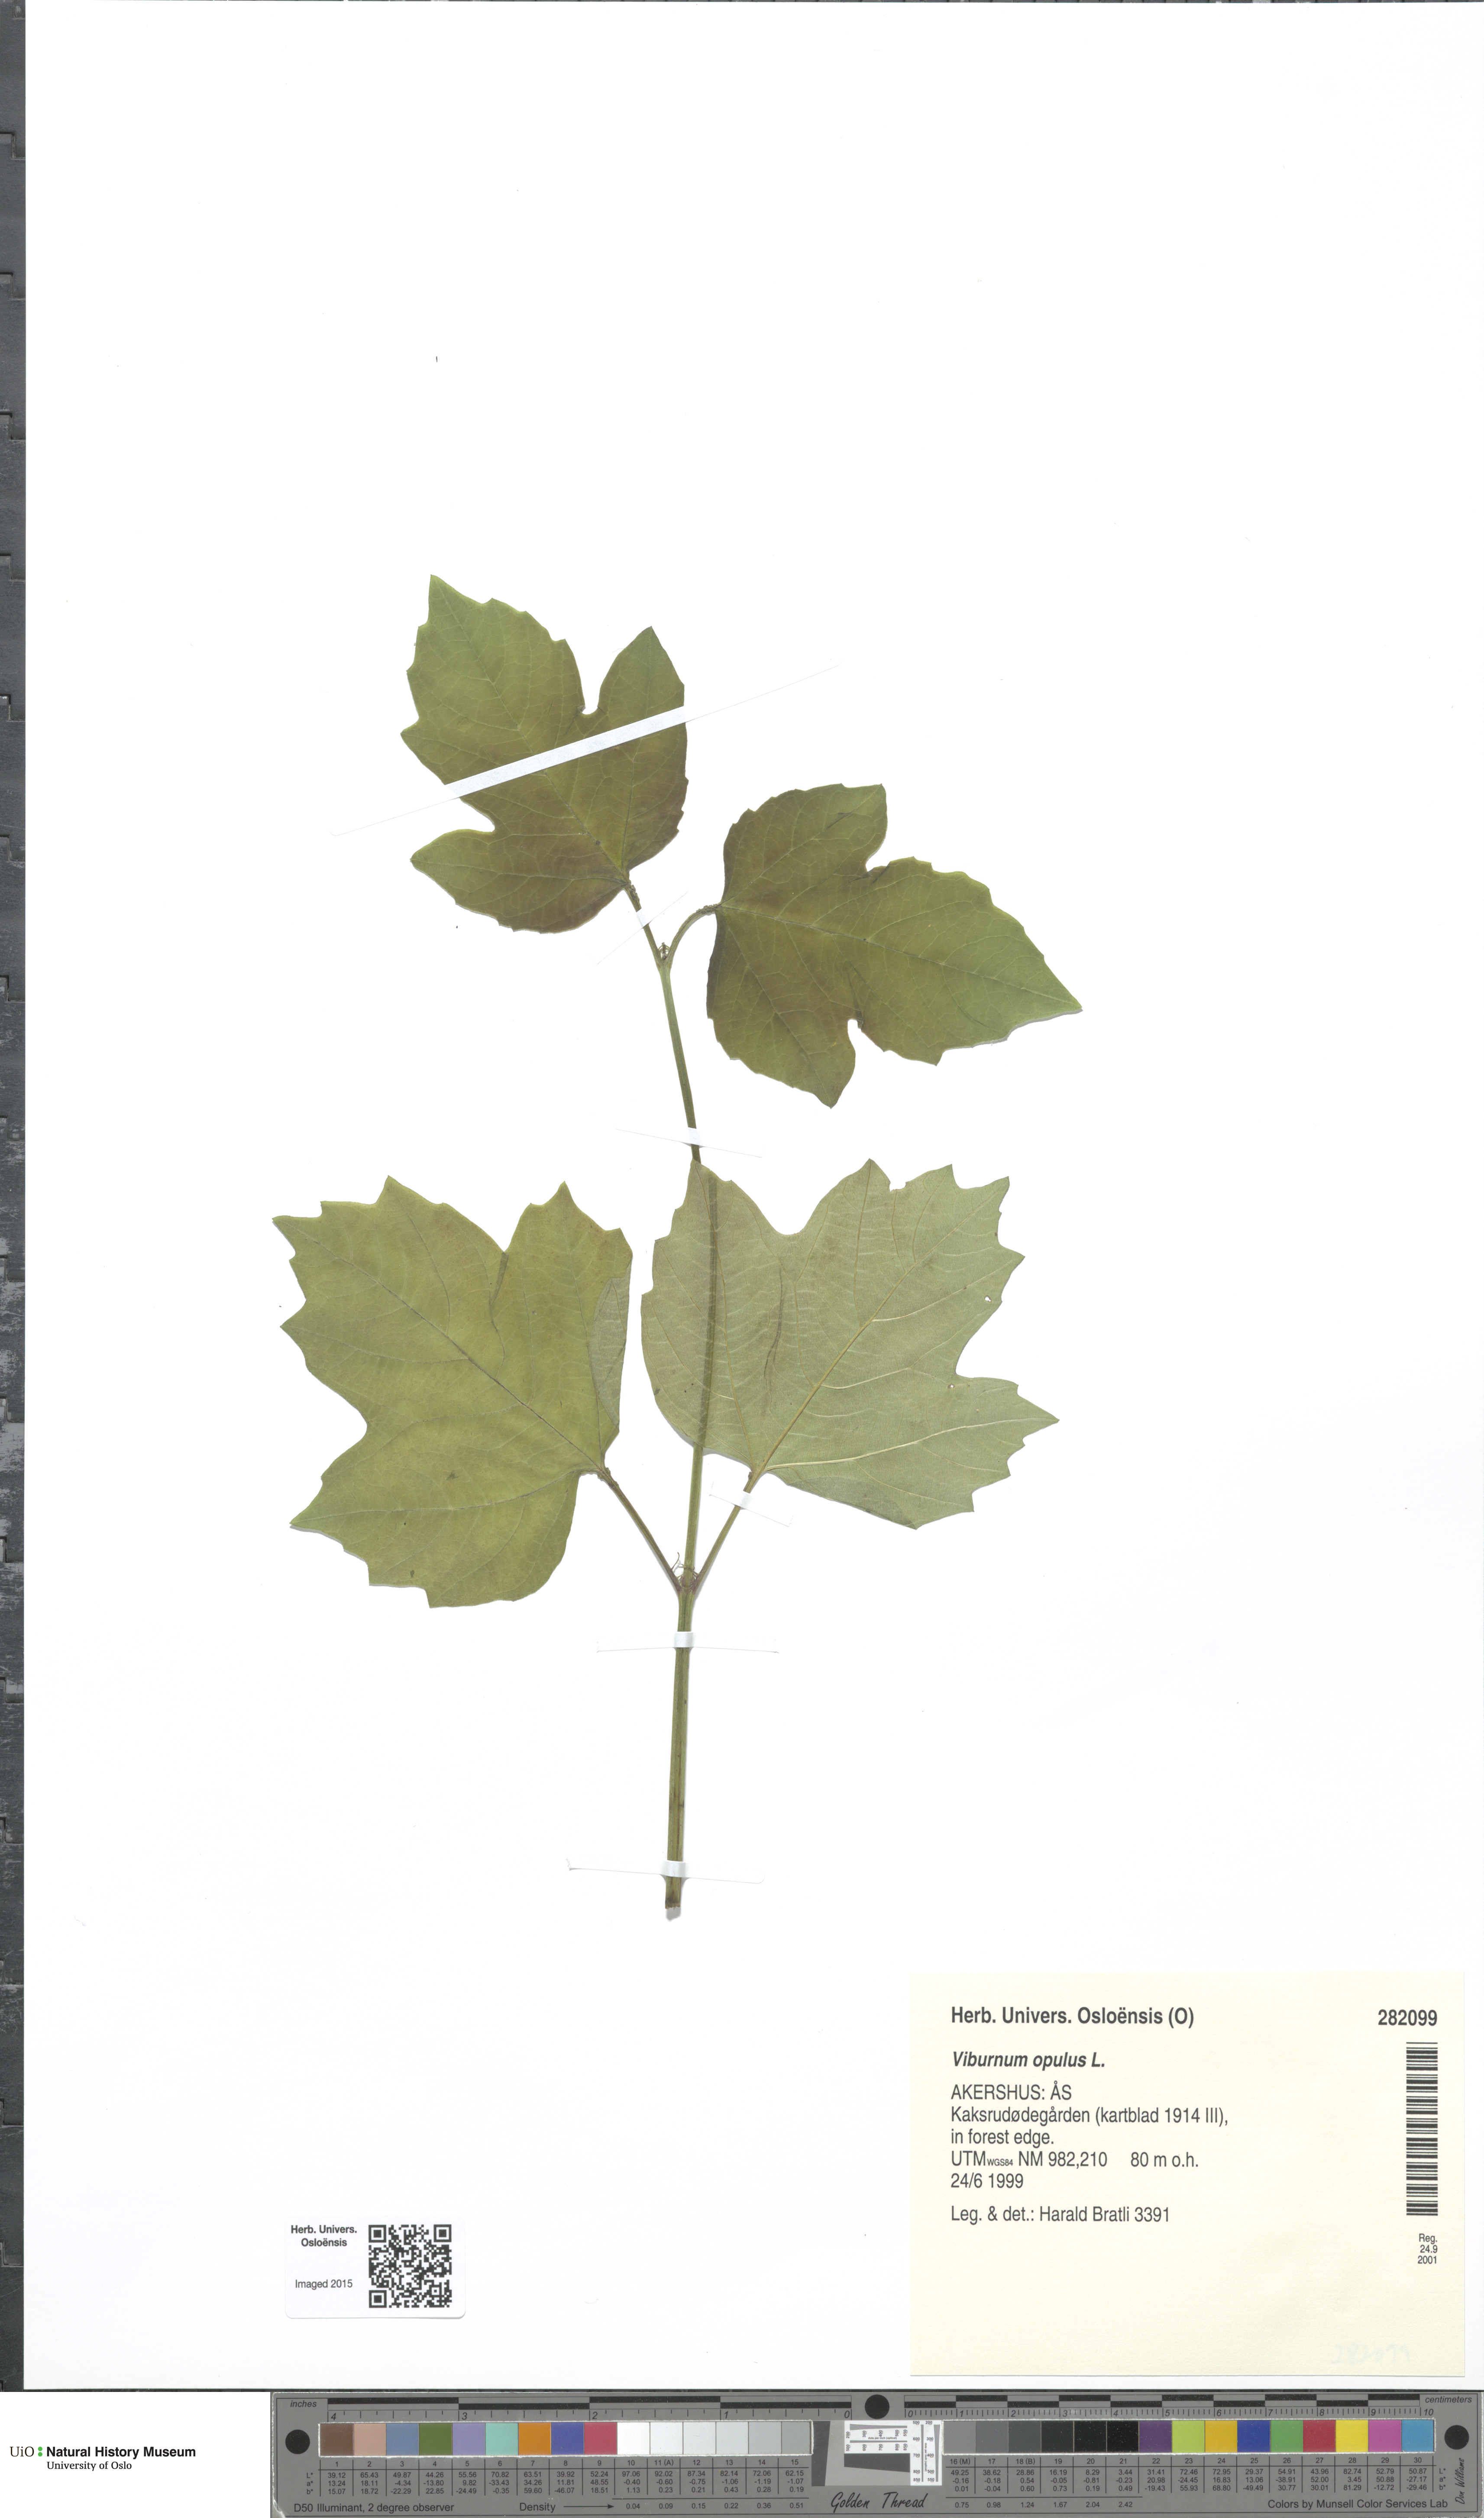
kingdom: Plantae
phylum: Tracheophyta
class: Magnoliopsida
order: Dipsacales
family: Viburnaceae
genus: Viburnum
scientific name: Viburnum opulus
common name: Guelder-rose
